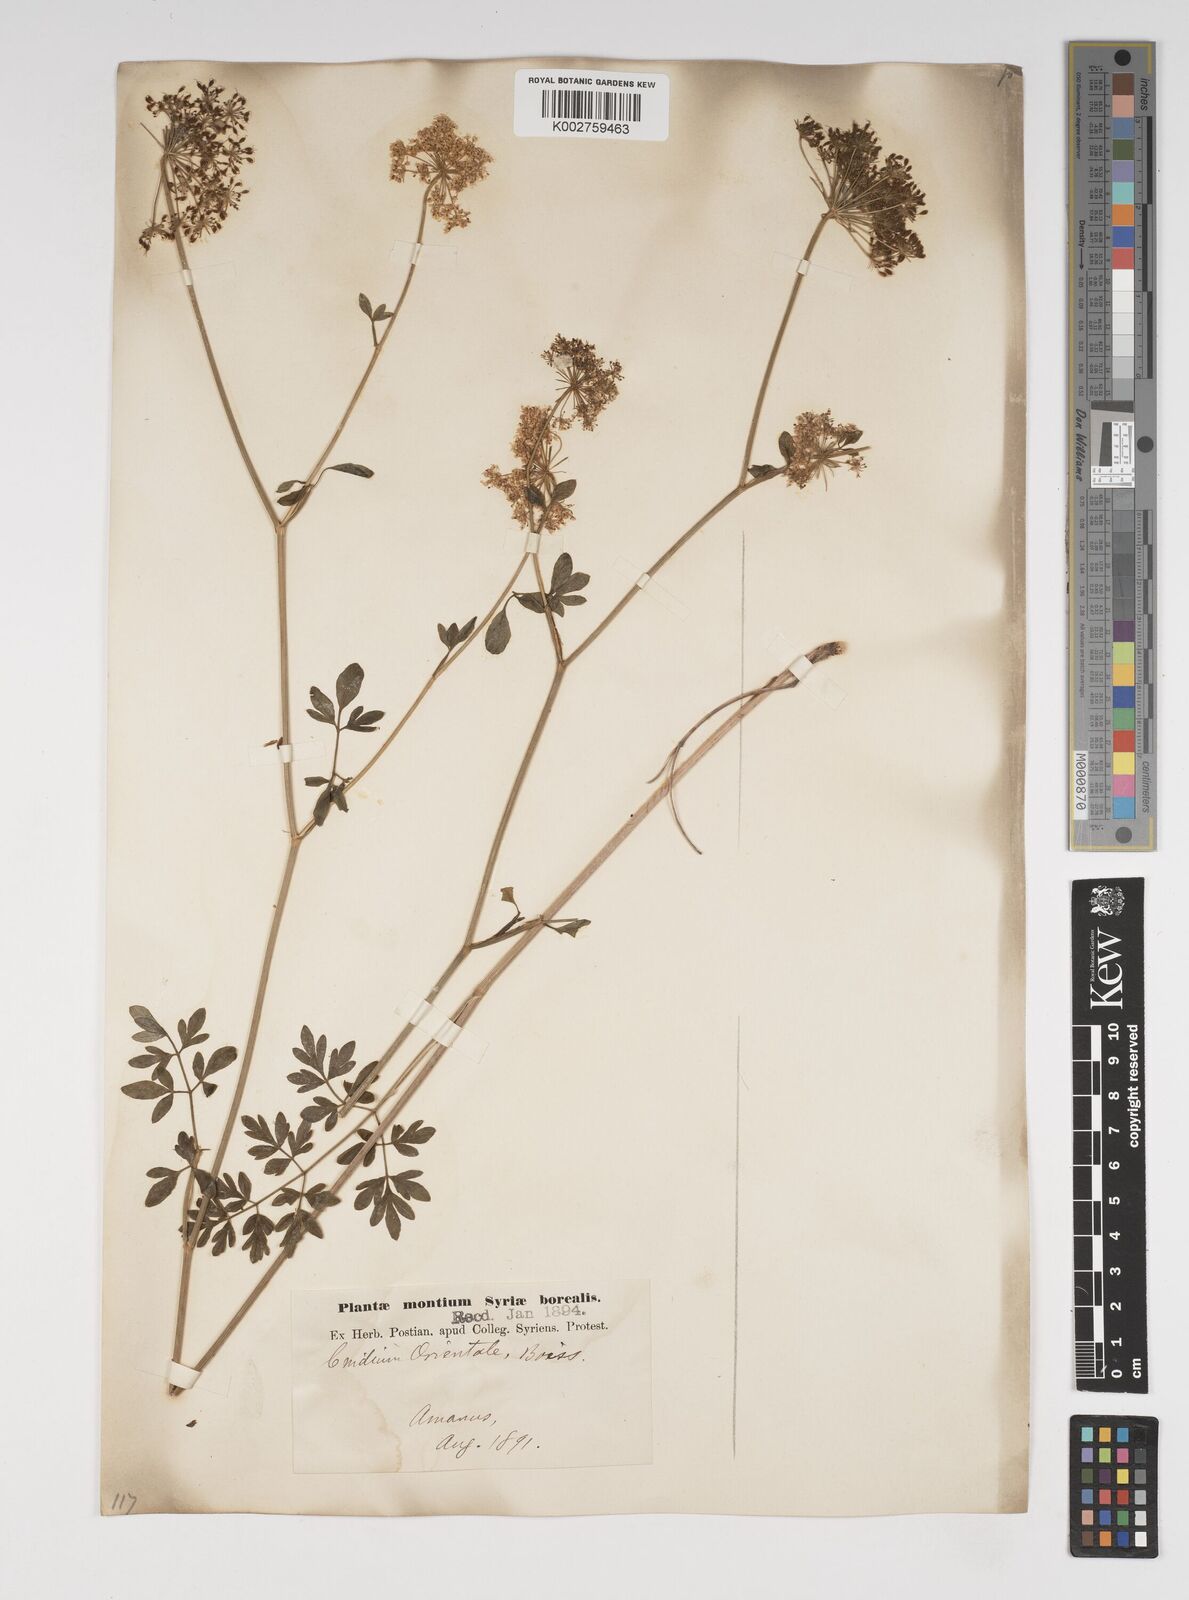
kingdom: Plantae
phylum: Tracheophyta
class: Magnoliopsida
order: Apiales
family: Apiaceae
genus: Katapsuxis
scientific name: Katapsuxis silaifolia
